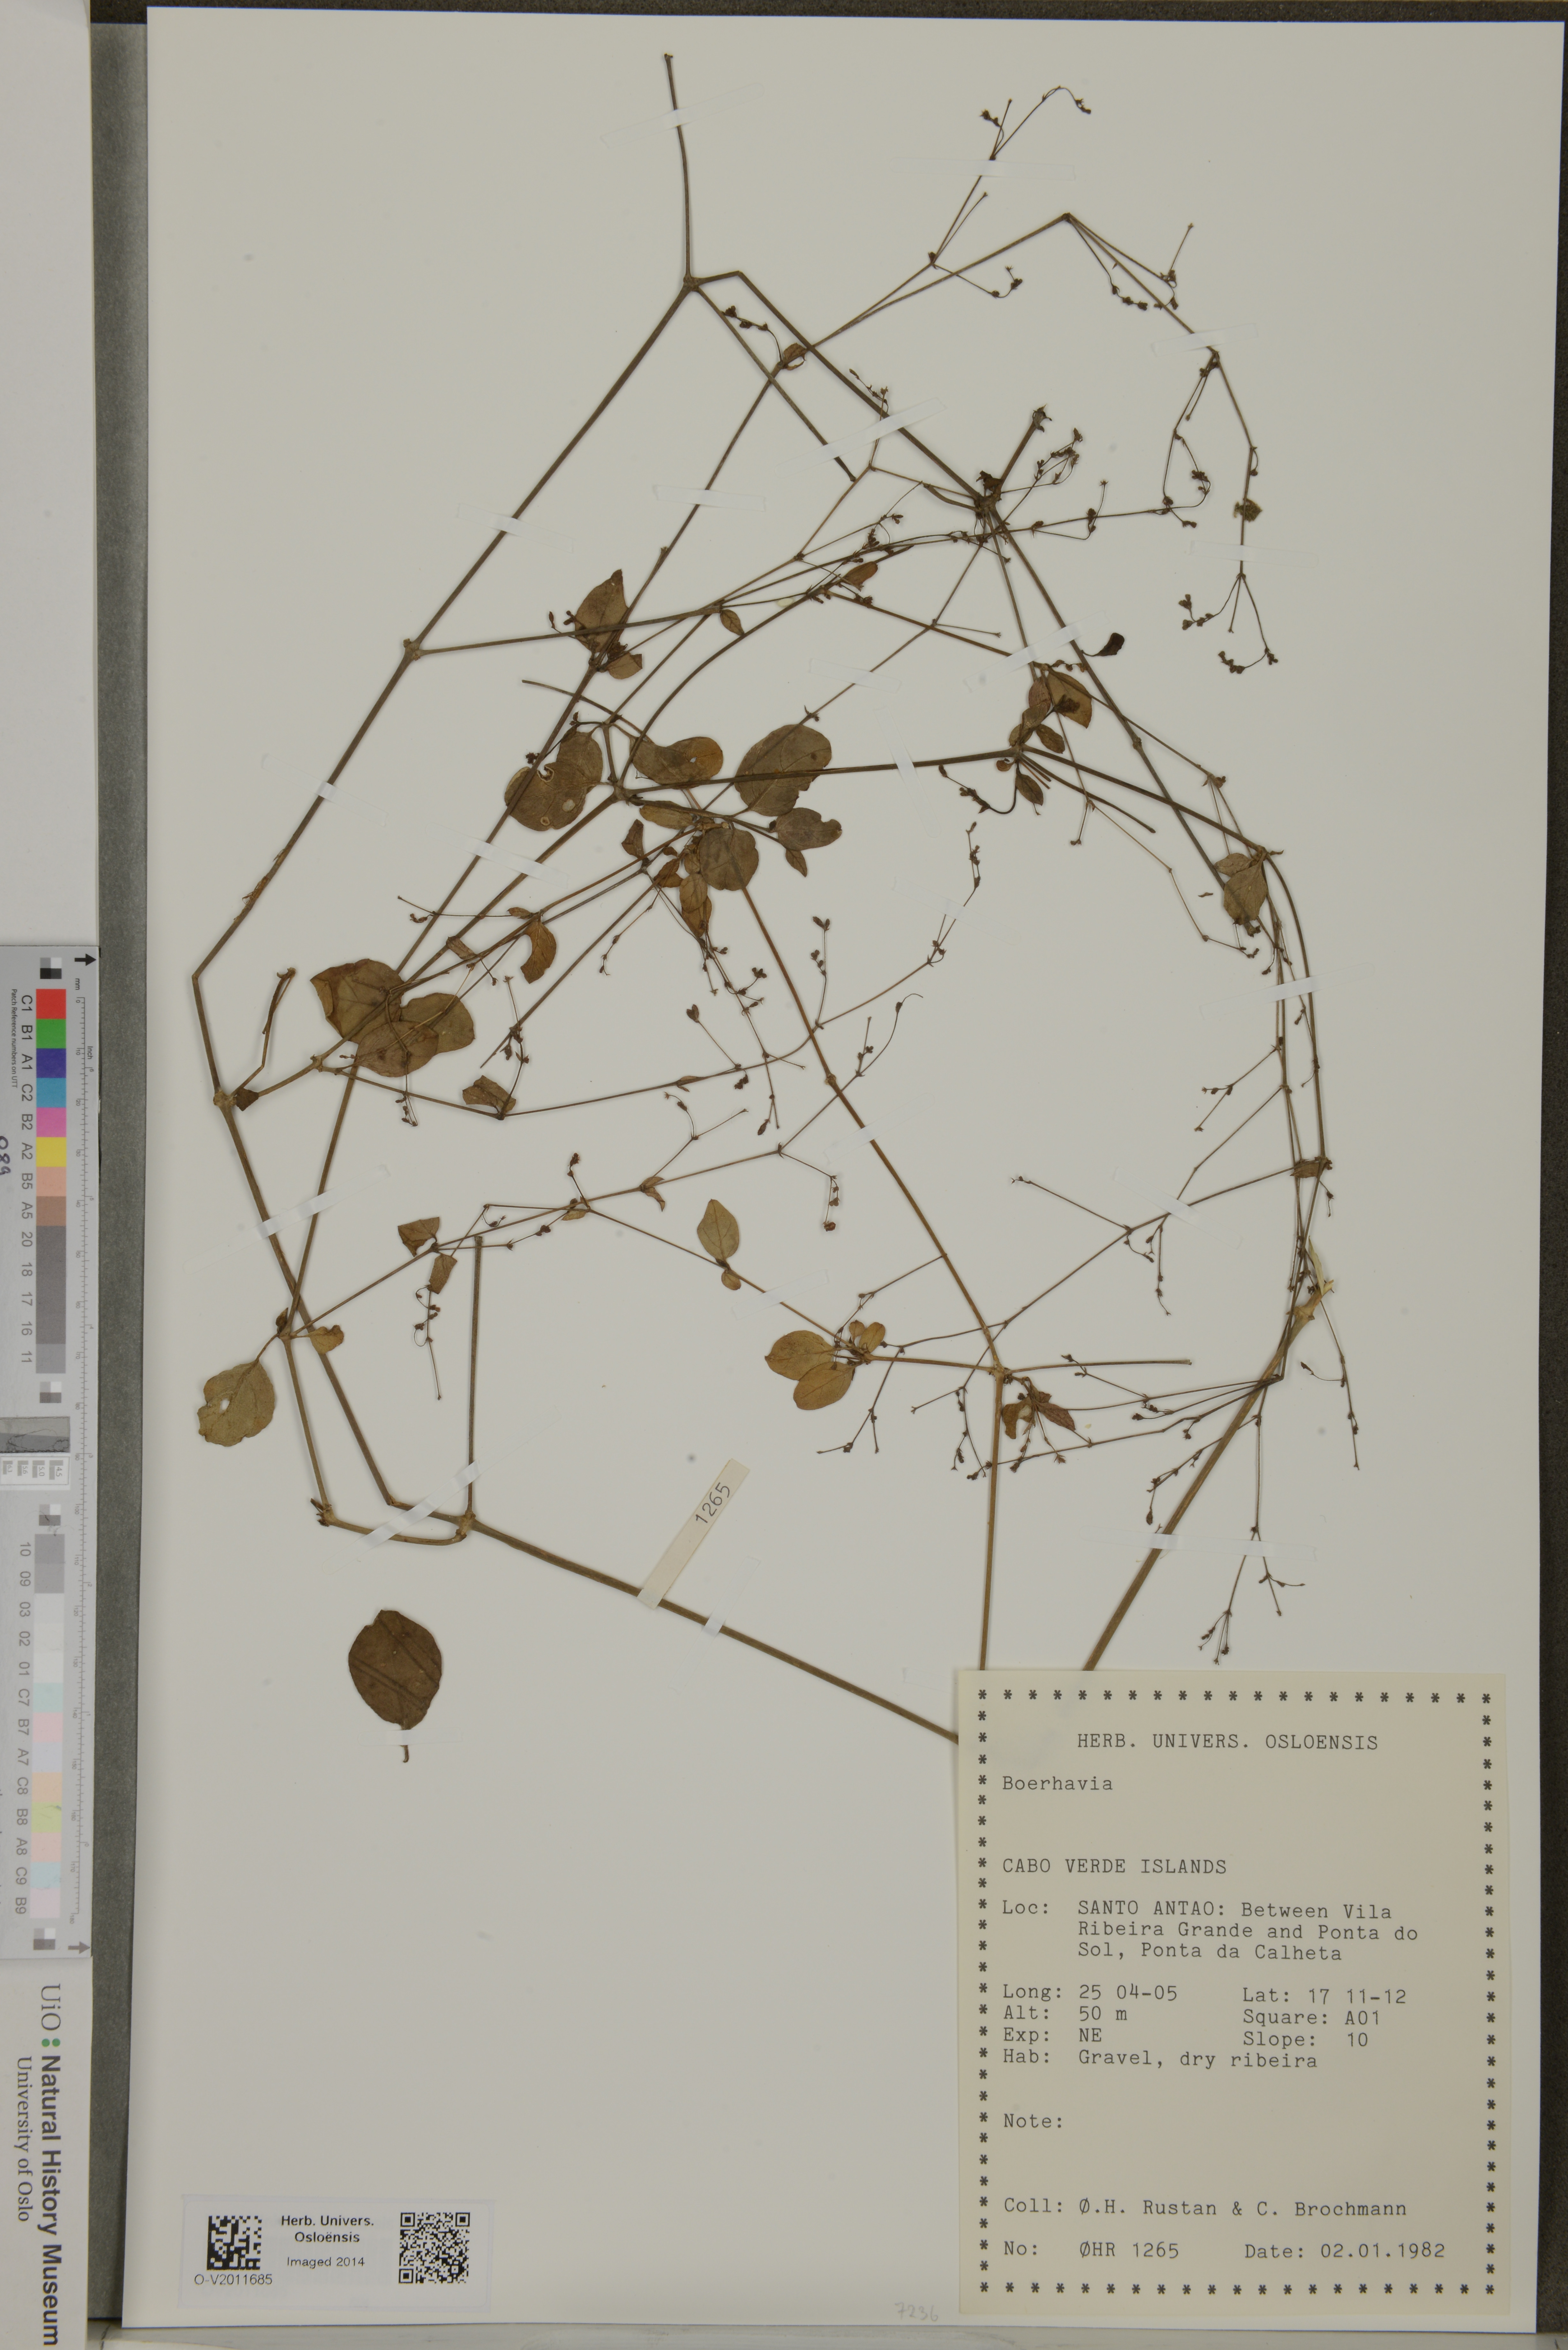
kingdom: Plantae
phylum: Tracheophyta
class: Magnoliopsida
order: Caryophyllales
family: Nyctaginaceae
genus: Boerhavia
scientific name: Boerhavia
